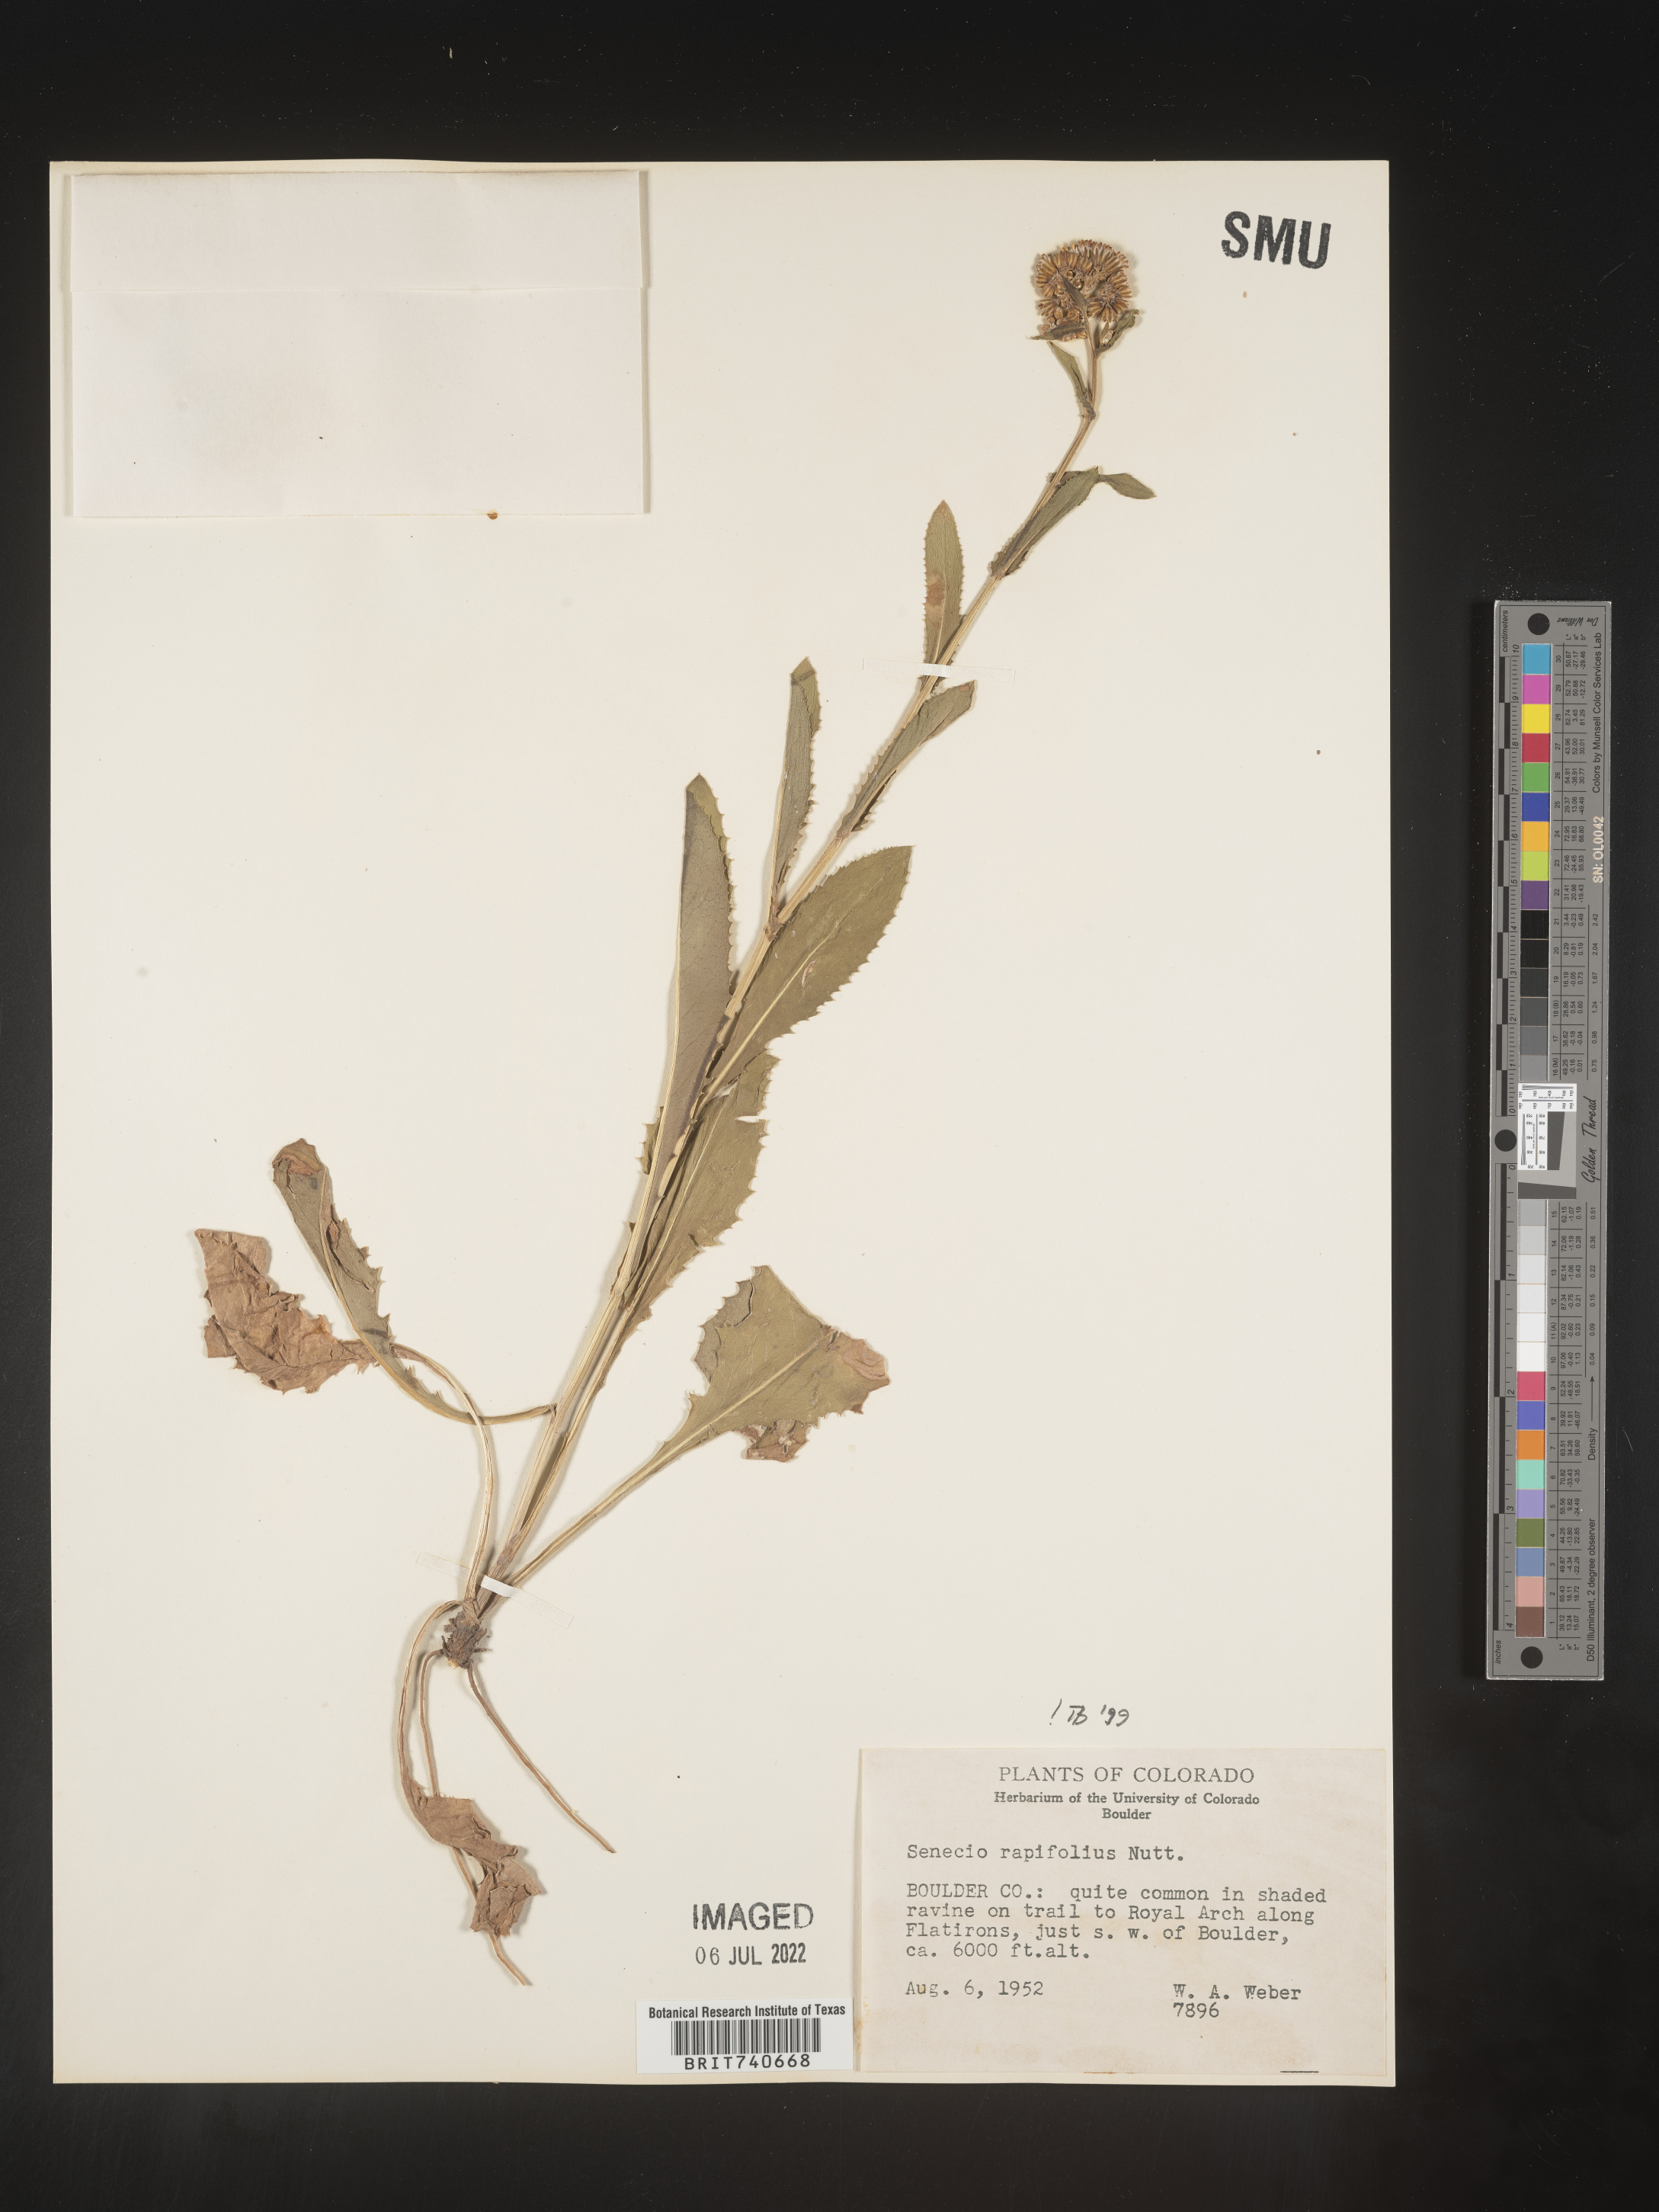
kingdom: Plantae
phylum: Tracheophyta
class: Magnoliopsida
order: Asterales
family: Asteraceae
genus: Senecio
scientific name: Senecio rapifolius
